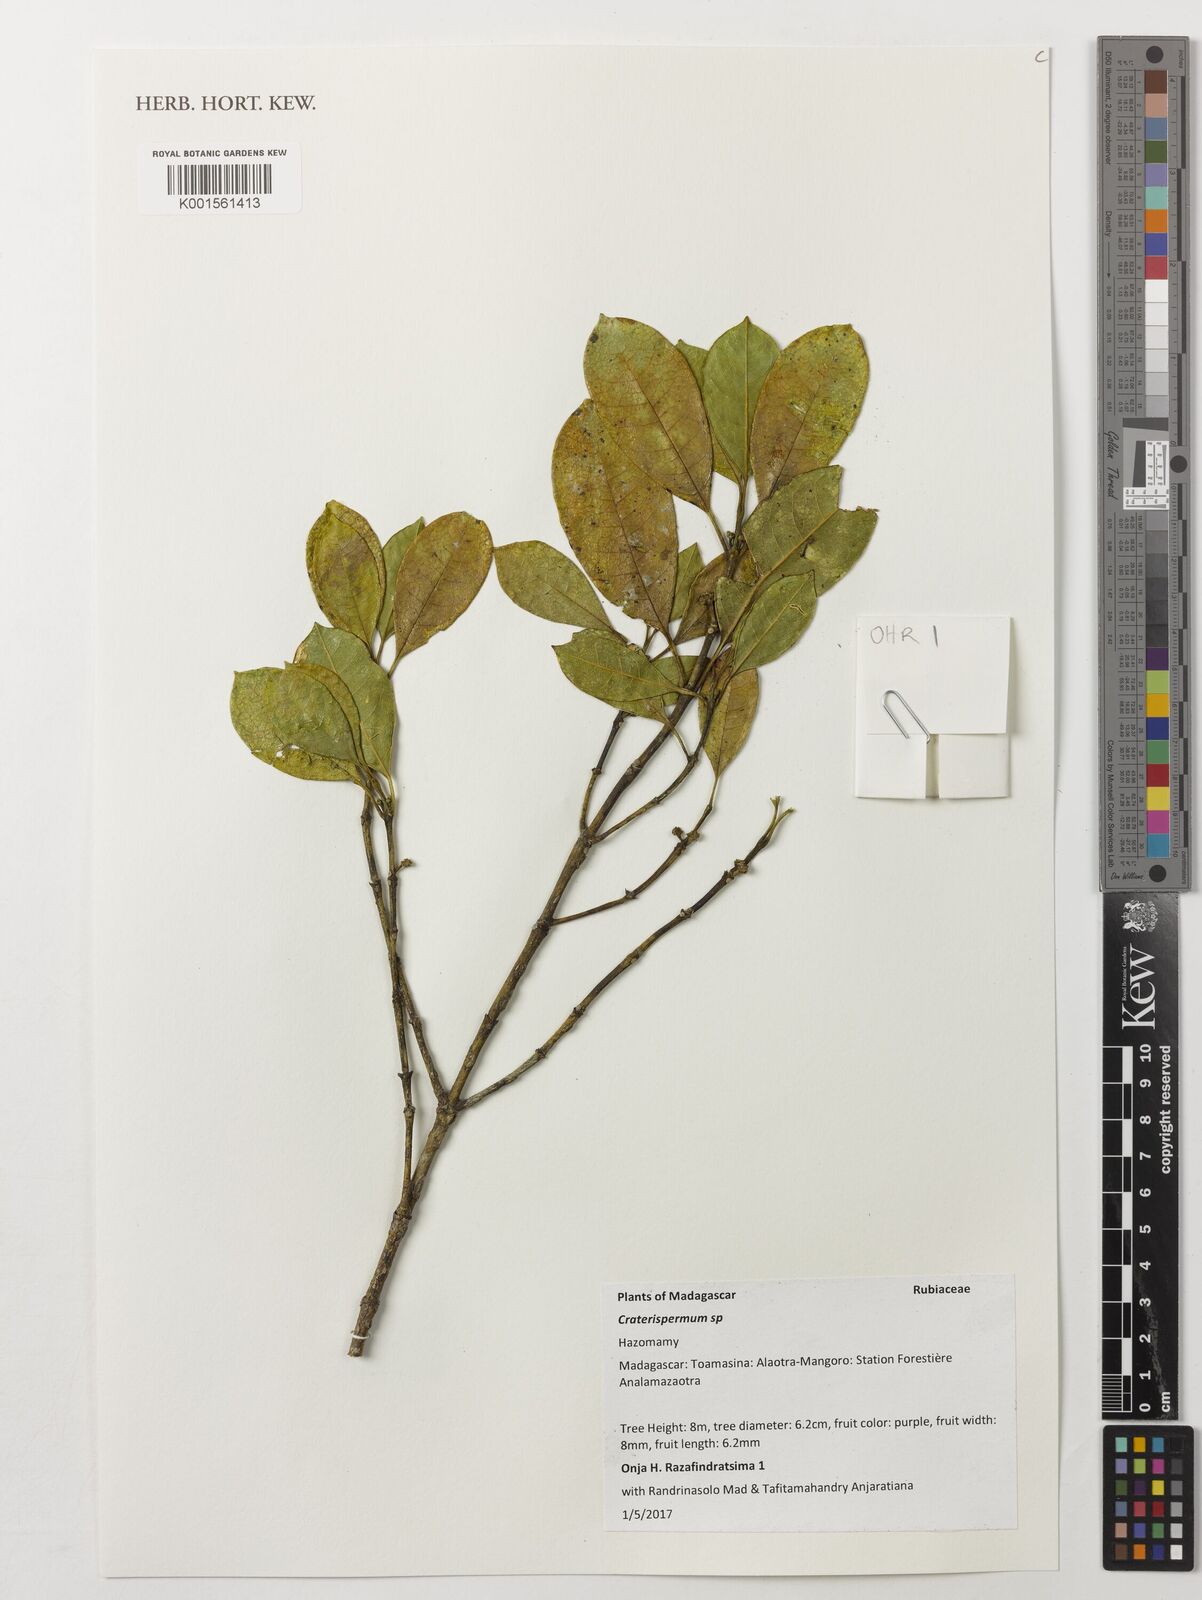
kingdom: Plantae
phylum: Tracheophyta
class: Magnoliopsida
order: Gentianales
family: Rubiaceae
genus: Craterispermum
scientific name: Craterispermum
